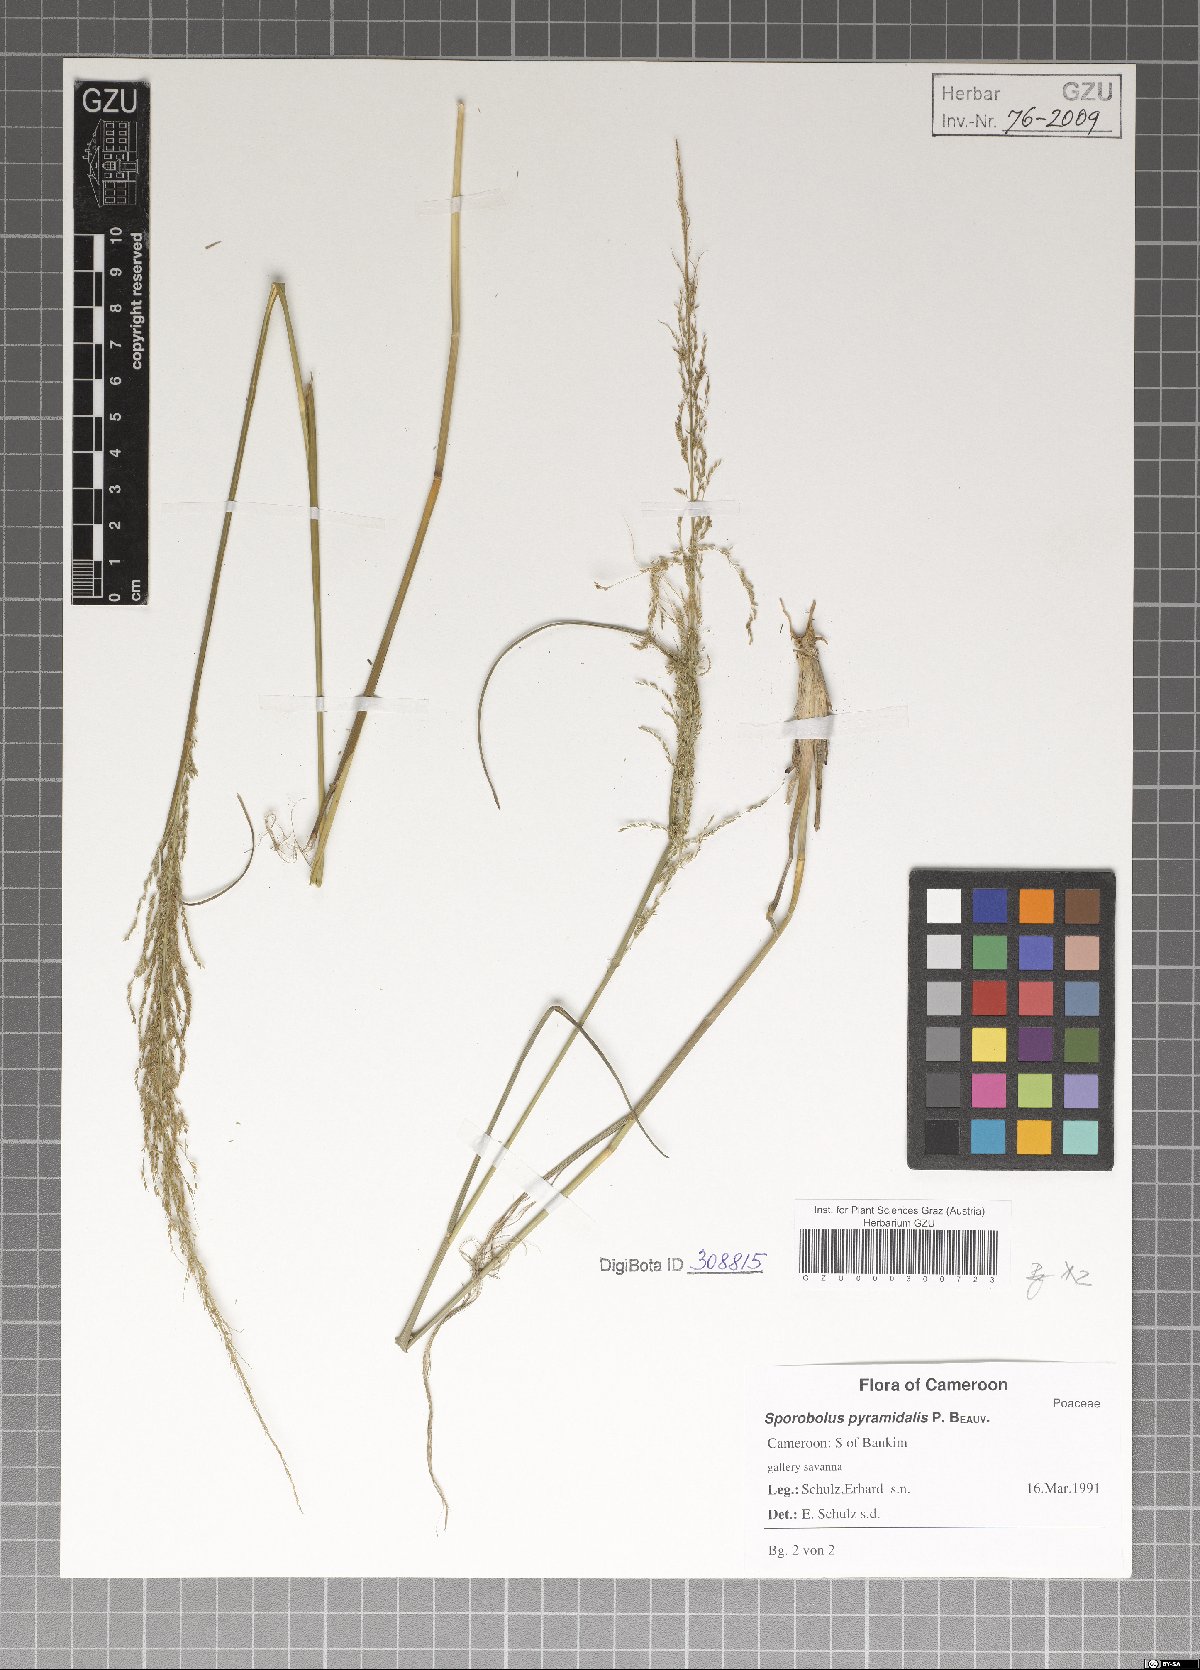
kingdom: Plantae
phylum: Tracheophyta
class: Liliopsida
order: Poales
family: Poaceae
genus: Sporobolus
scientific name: Sporobolus pyramidalis
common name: West indian dropseed
